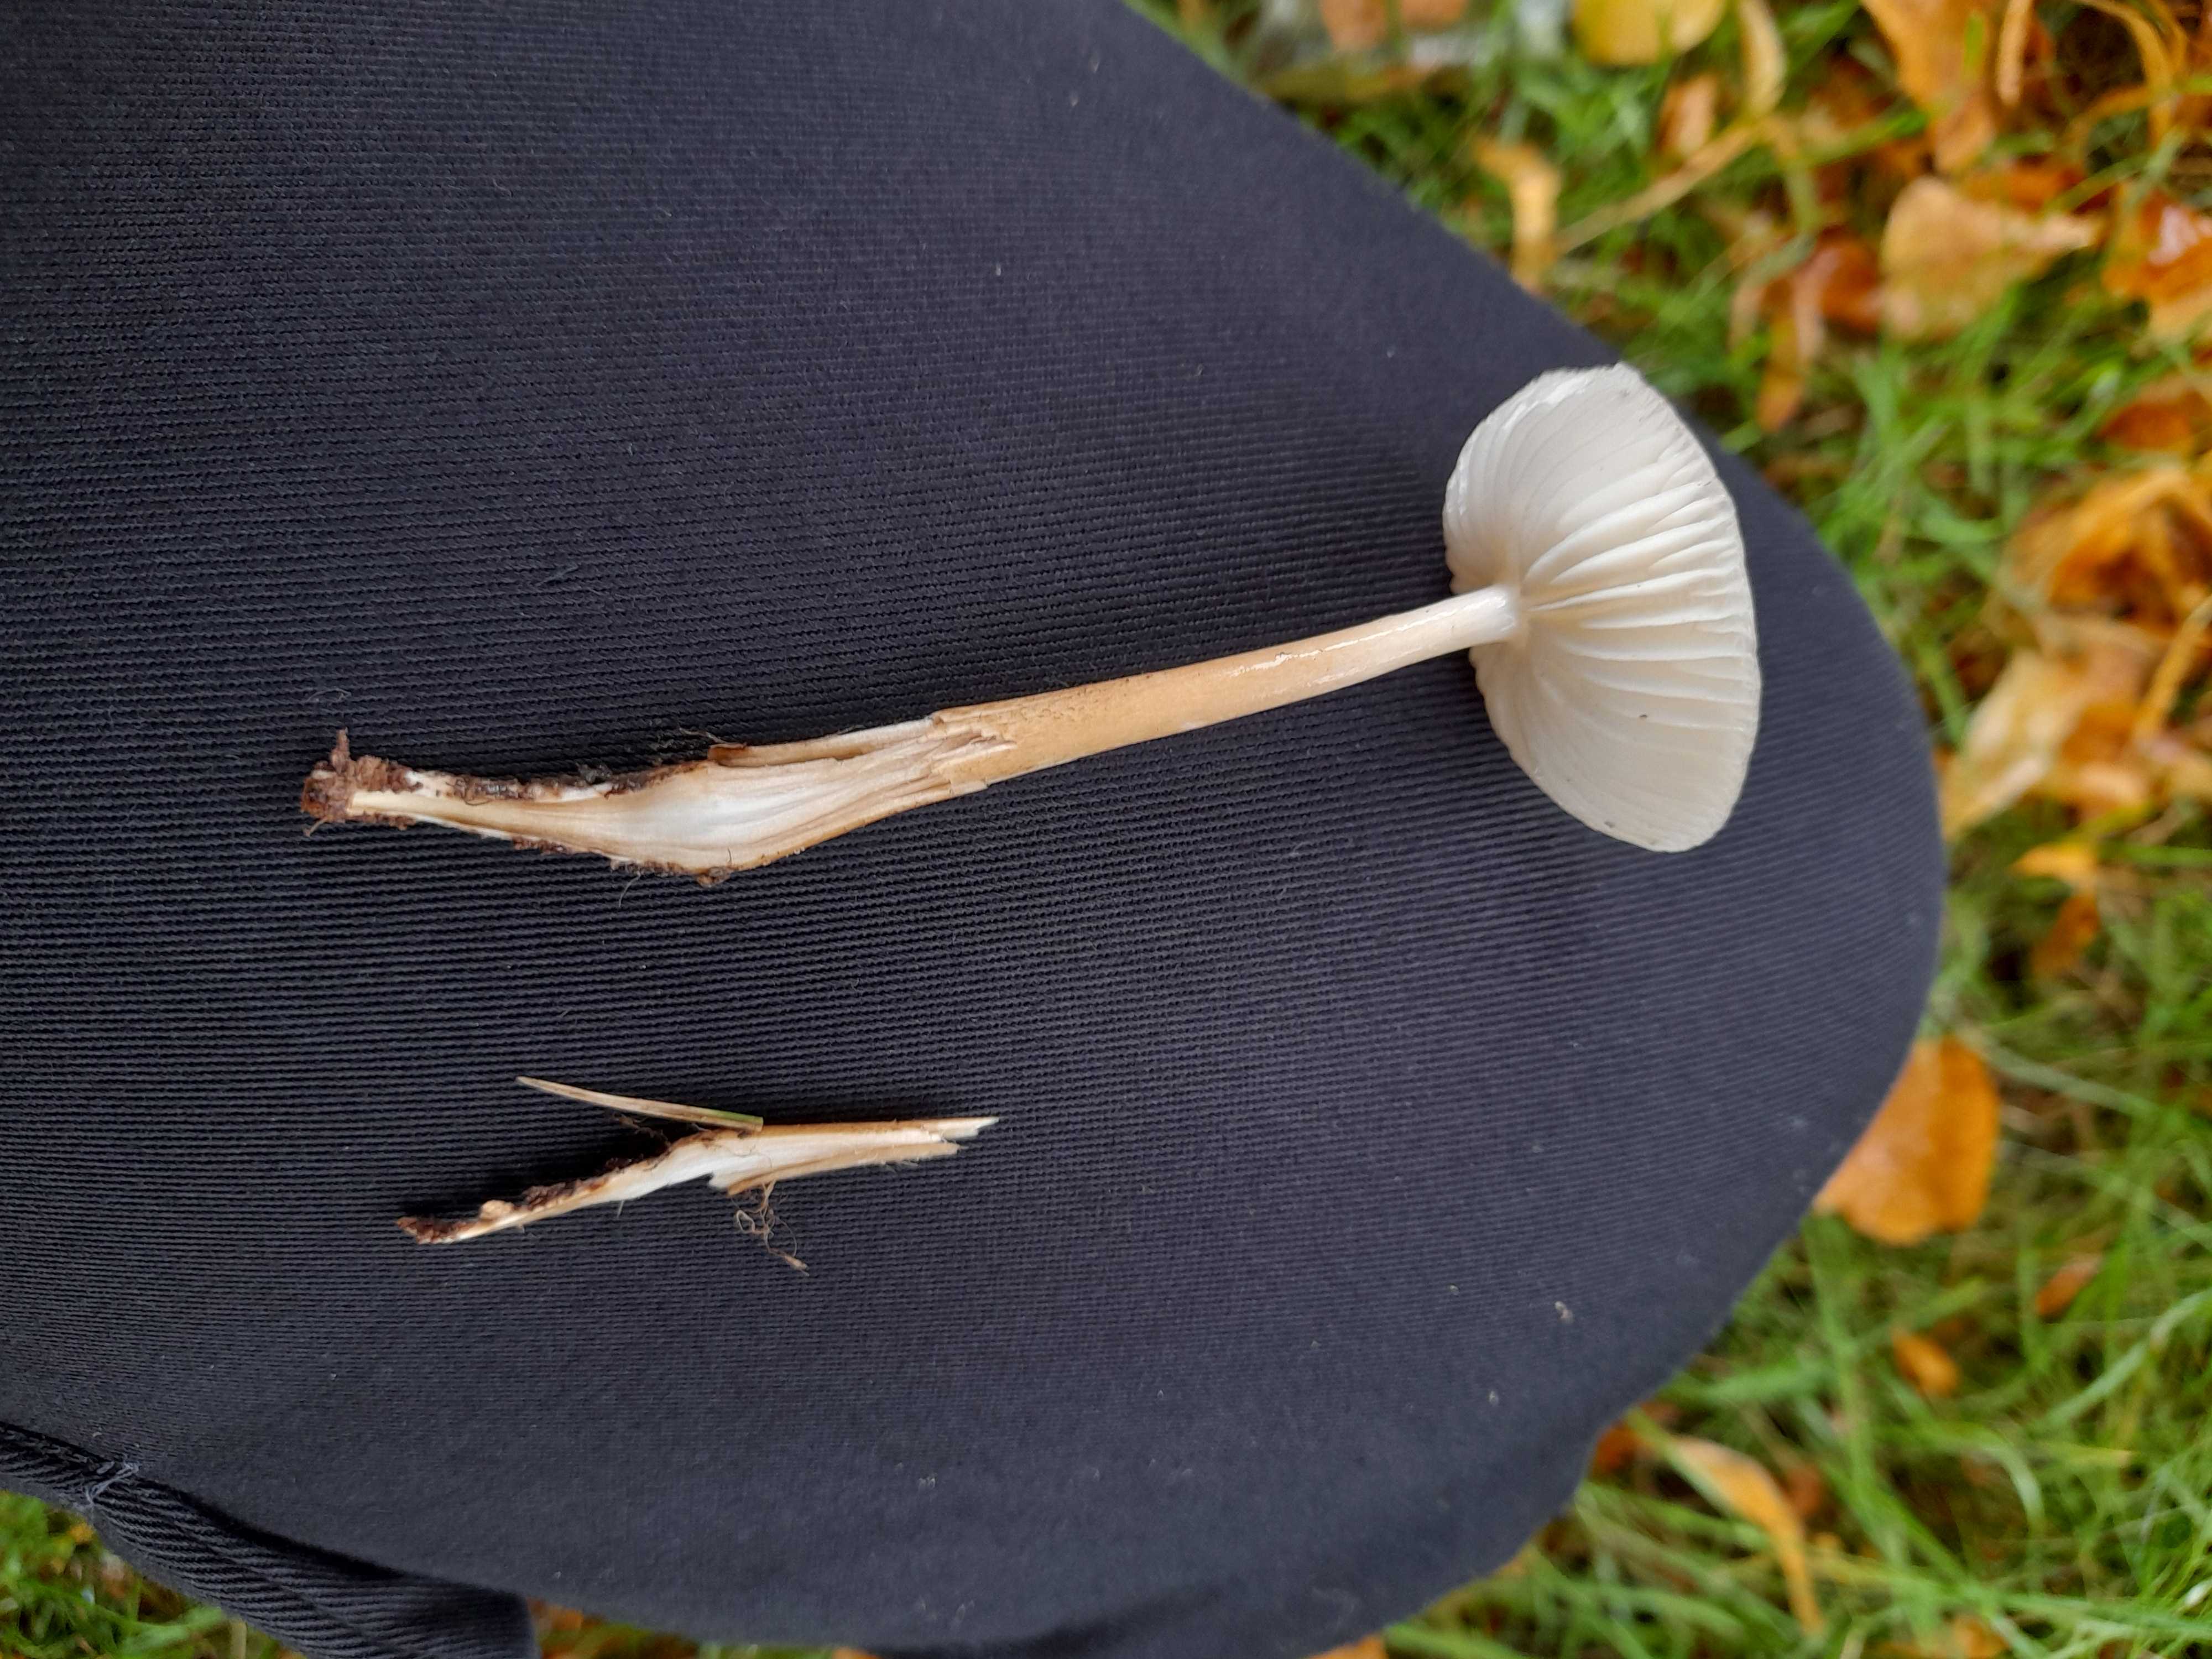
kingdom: Fungi
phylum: Basidiomycota
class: Agaricomycetes
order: Agaricales
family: Physalacriaceae
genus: Hymenopellis
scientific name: Hymenopellis radicata
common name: almindelig pælerodshat
